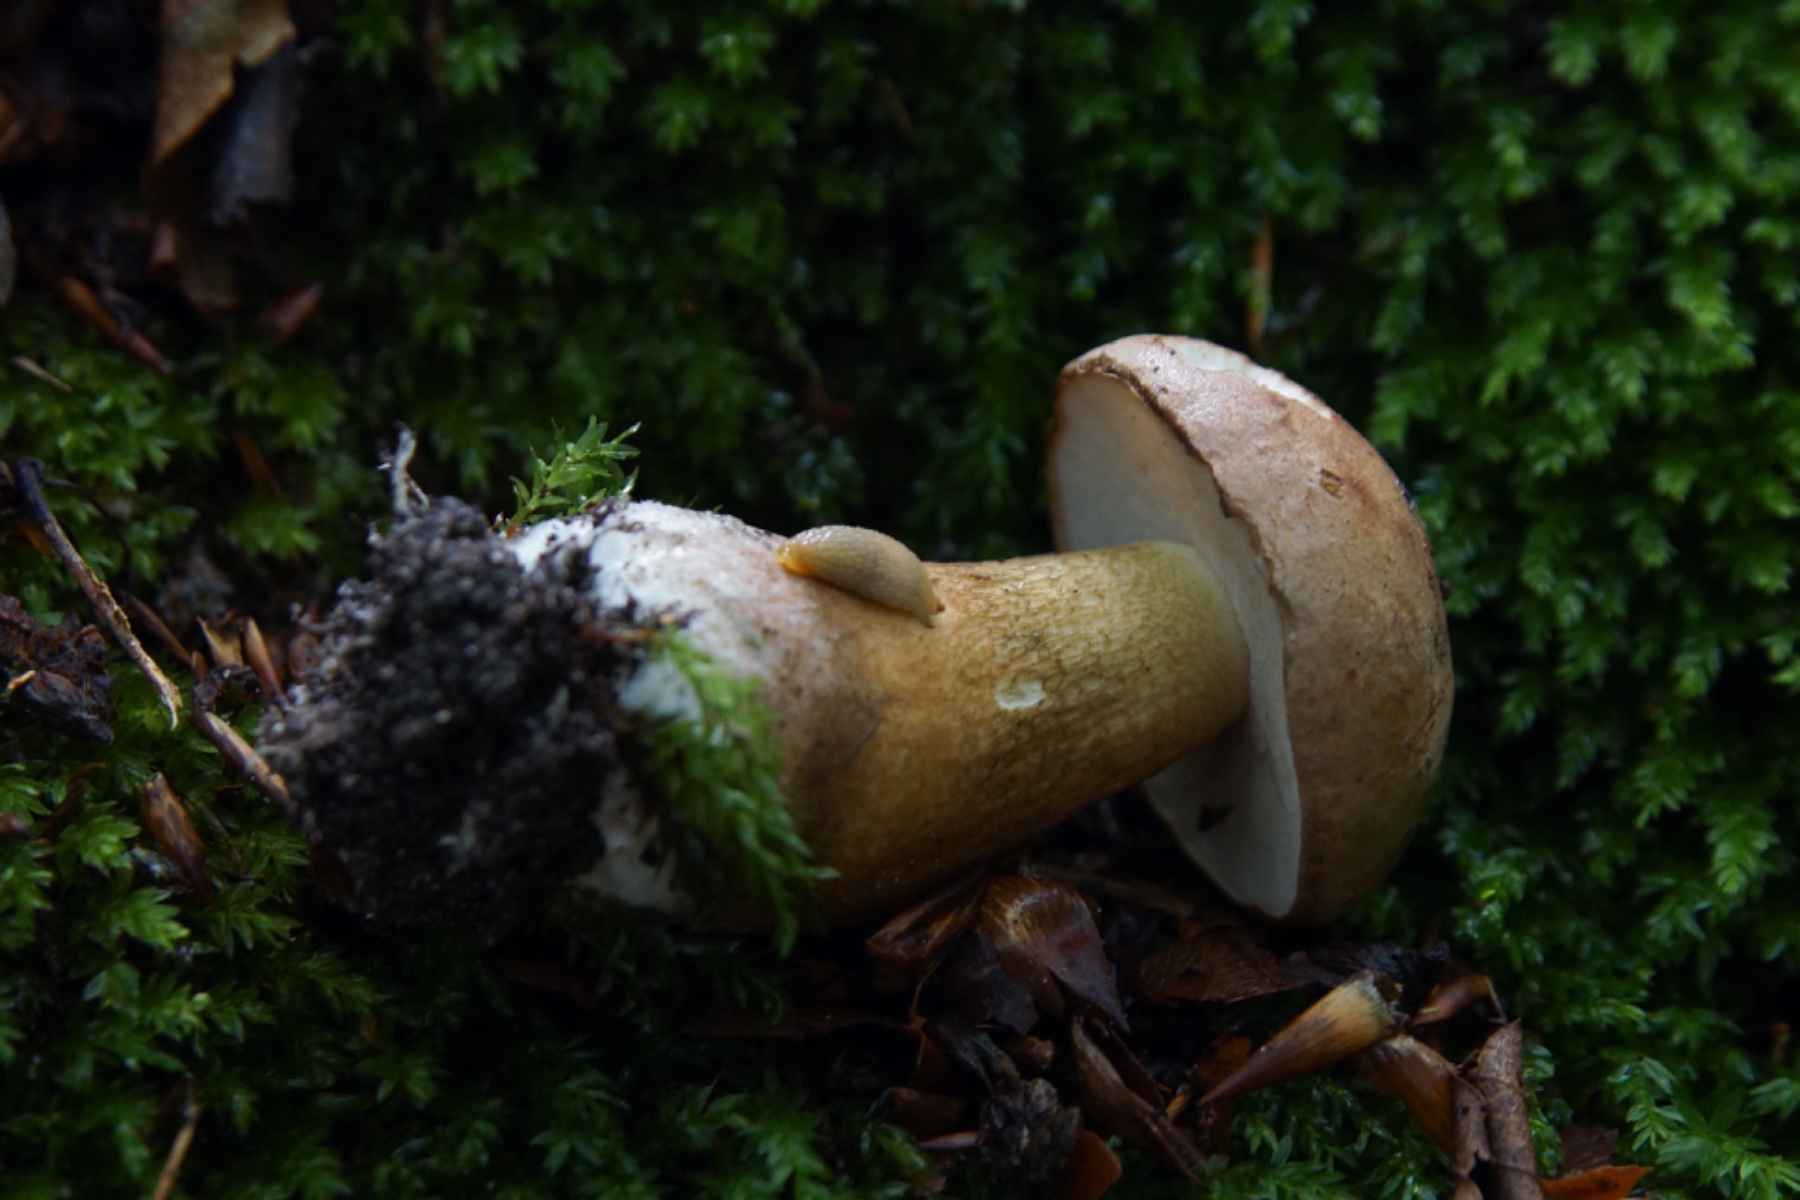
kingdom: Fungi
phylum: Basidiomycota
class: Agaricomycetes
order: Boletales
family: Boletaceae
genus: Tylopilus
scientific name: Tylopilus felleus
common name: galderørhat
